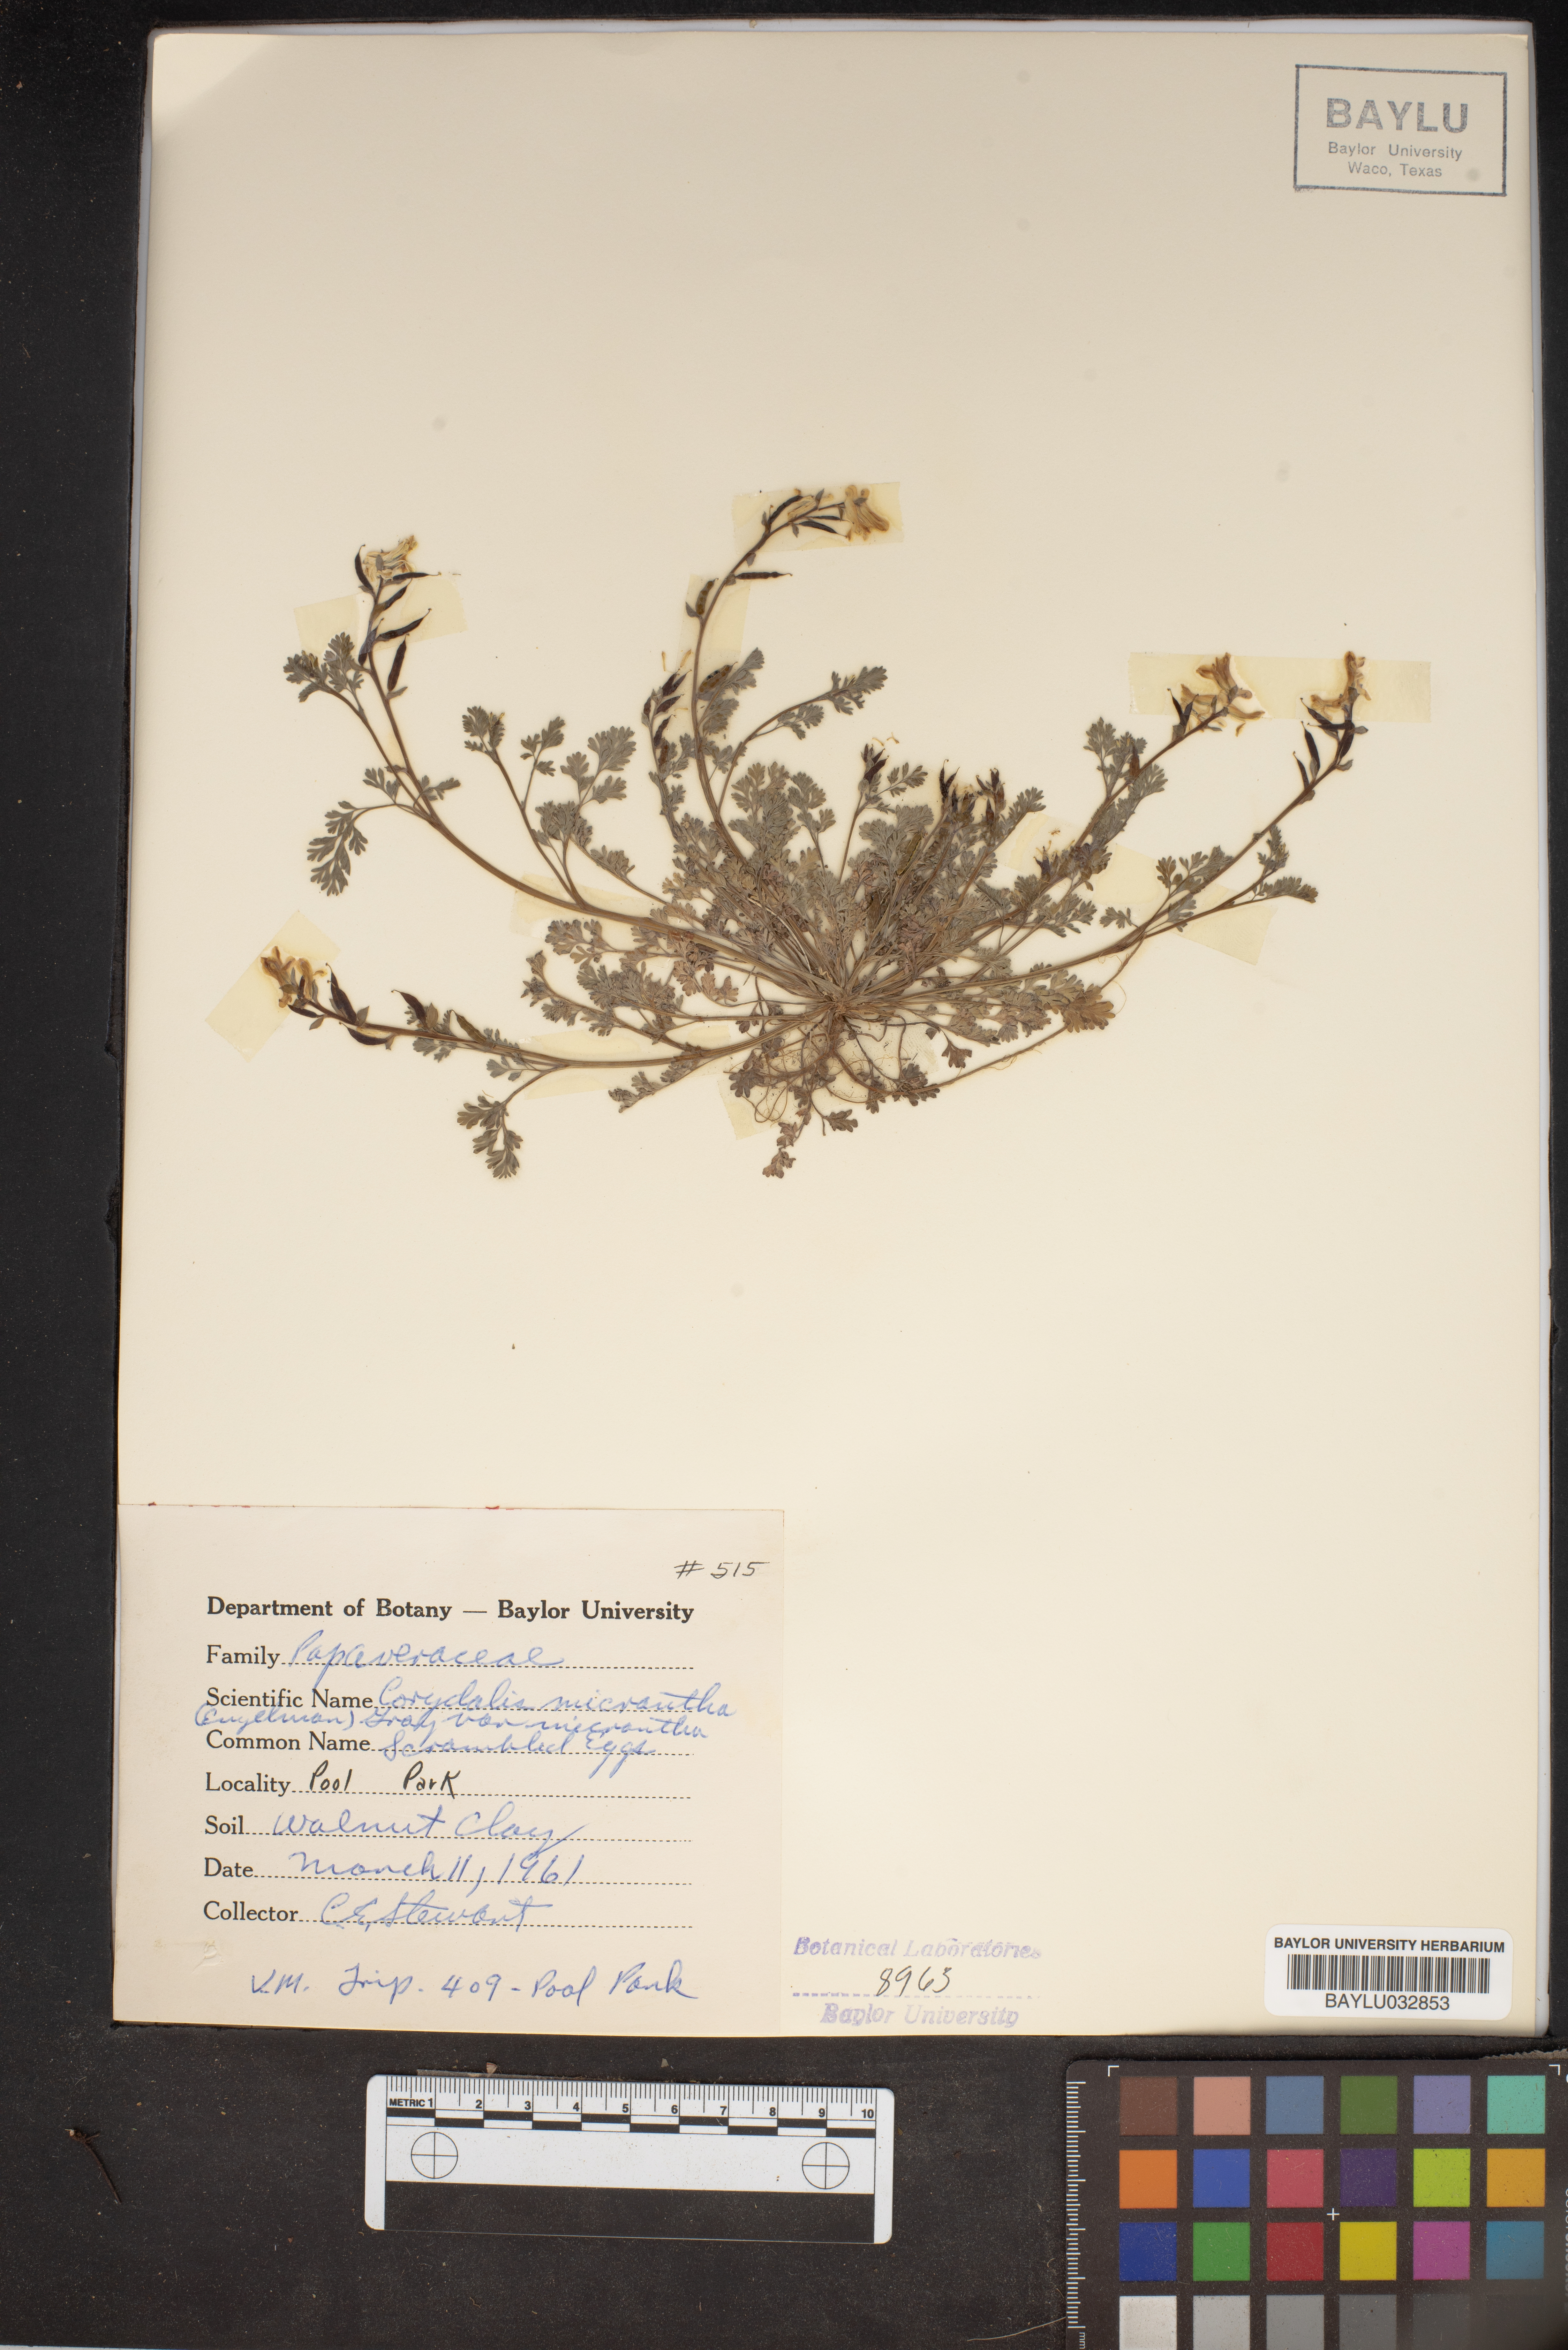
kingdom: Plantae
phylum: Tracheophyta
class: Magnoliopsida
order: Ranunculales
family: Papaveraceae
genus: Corydalis
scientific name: Corydalis micrantha
